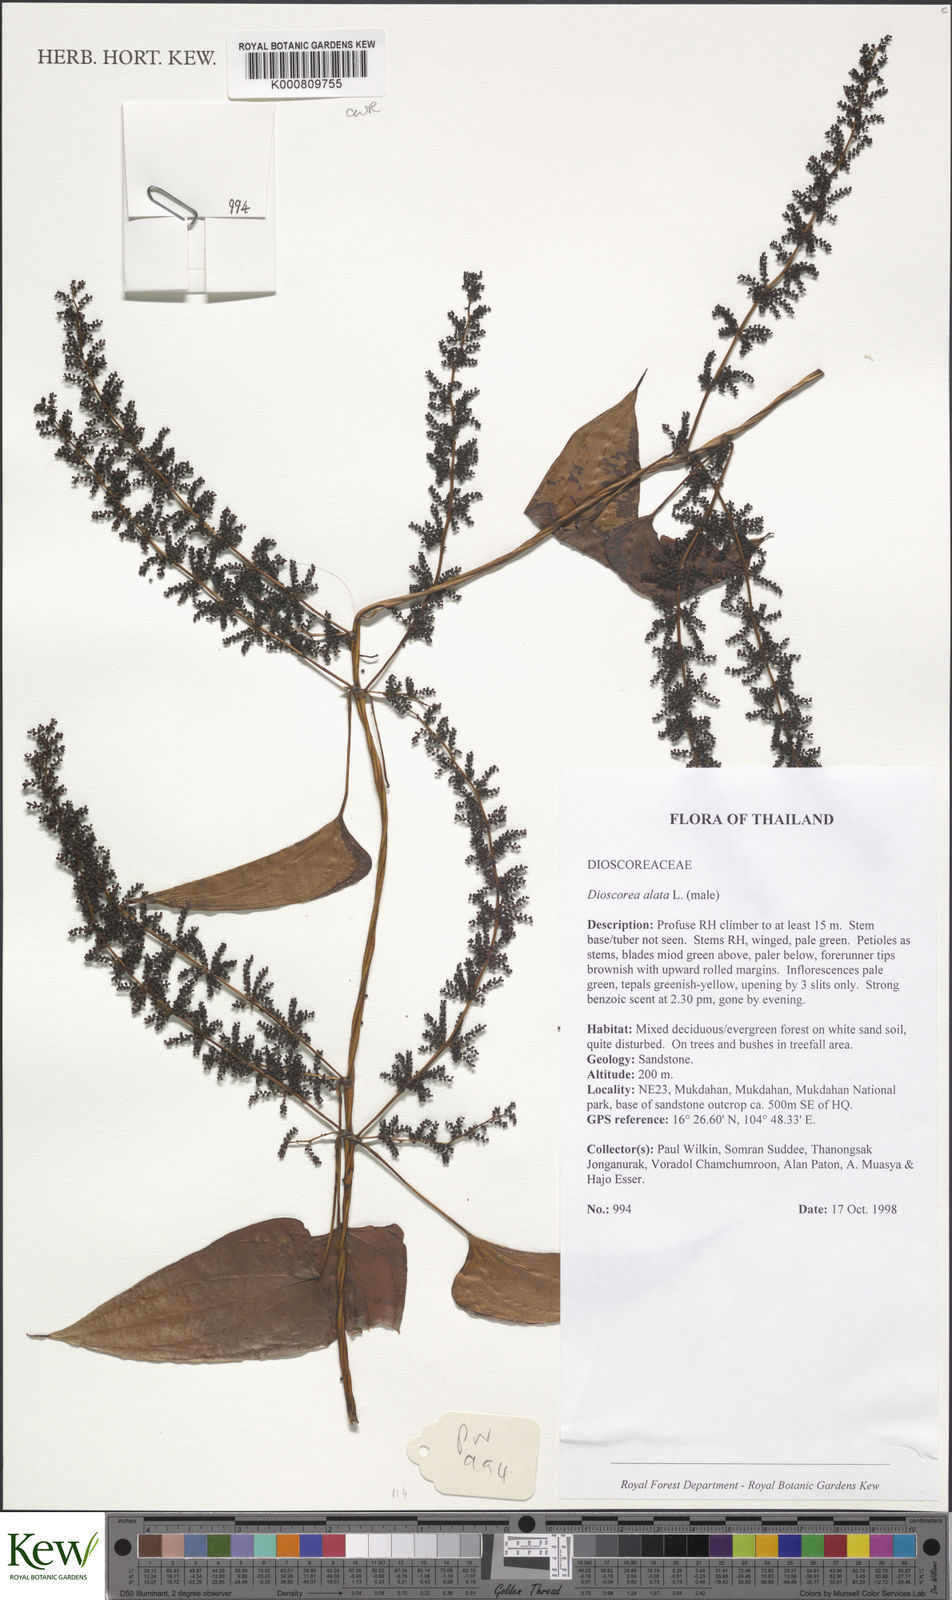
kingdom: Plantae
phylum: Tracheophyta
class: Liliopsida
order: Dioscoreales
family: Dioscoreaceae
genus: Dioscorea
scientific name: Dioscorea alata
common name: Water yam
